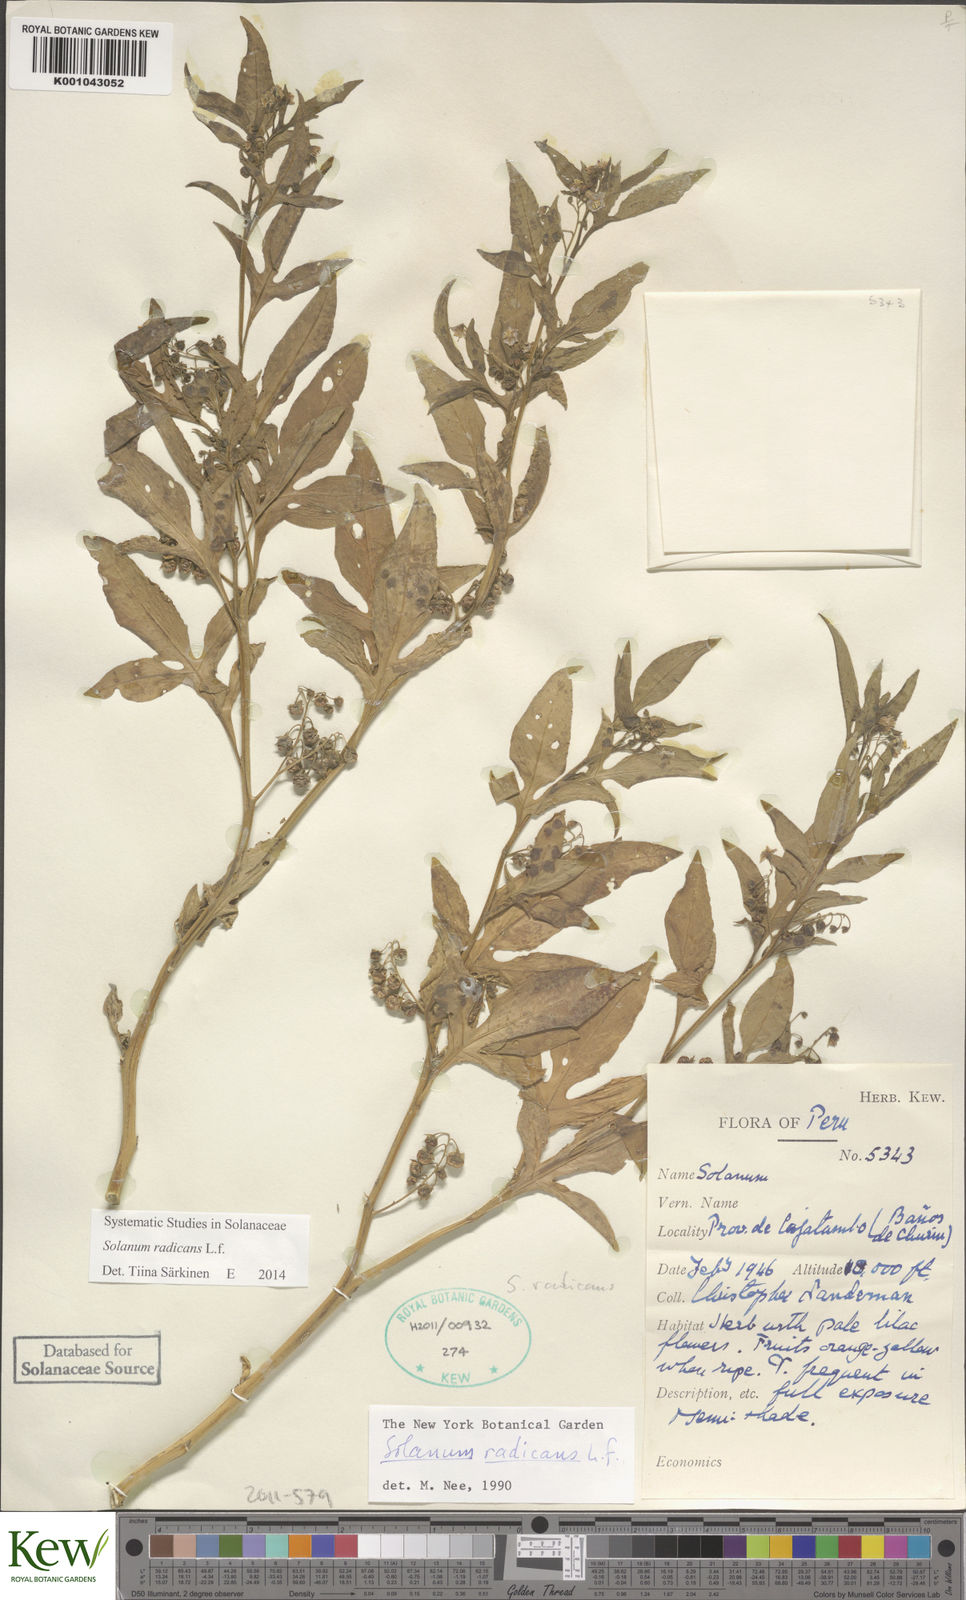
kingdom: Plantae
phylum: Tracheophyta
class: Magnoliopsida
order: Solanales
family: Solanaceae
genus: Solanum
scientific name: Solanum radicans
